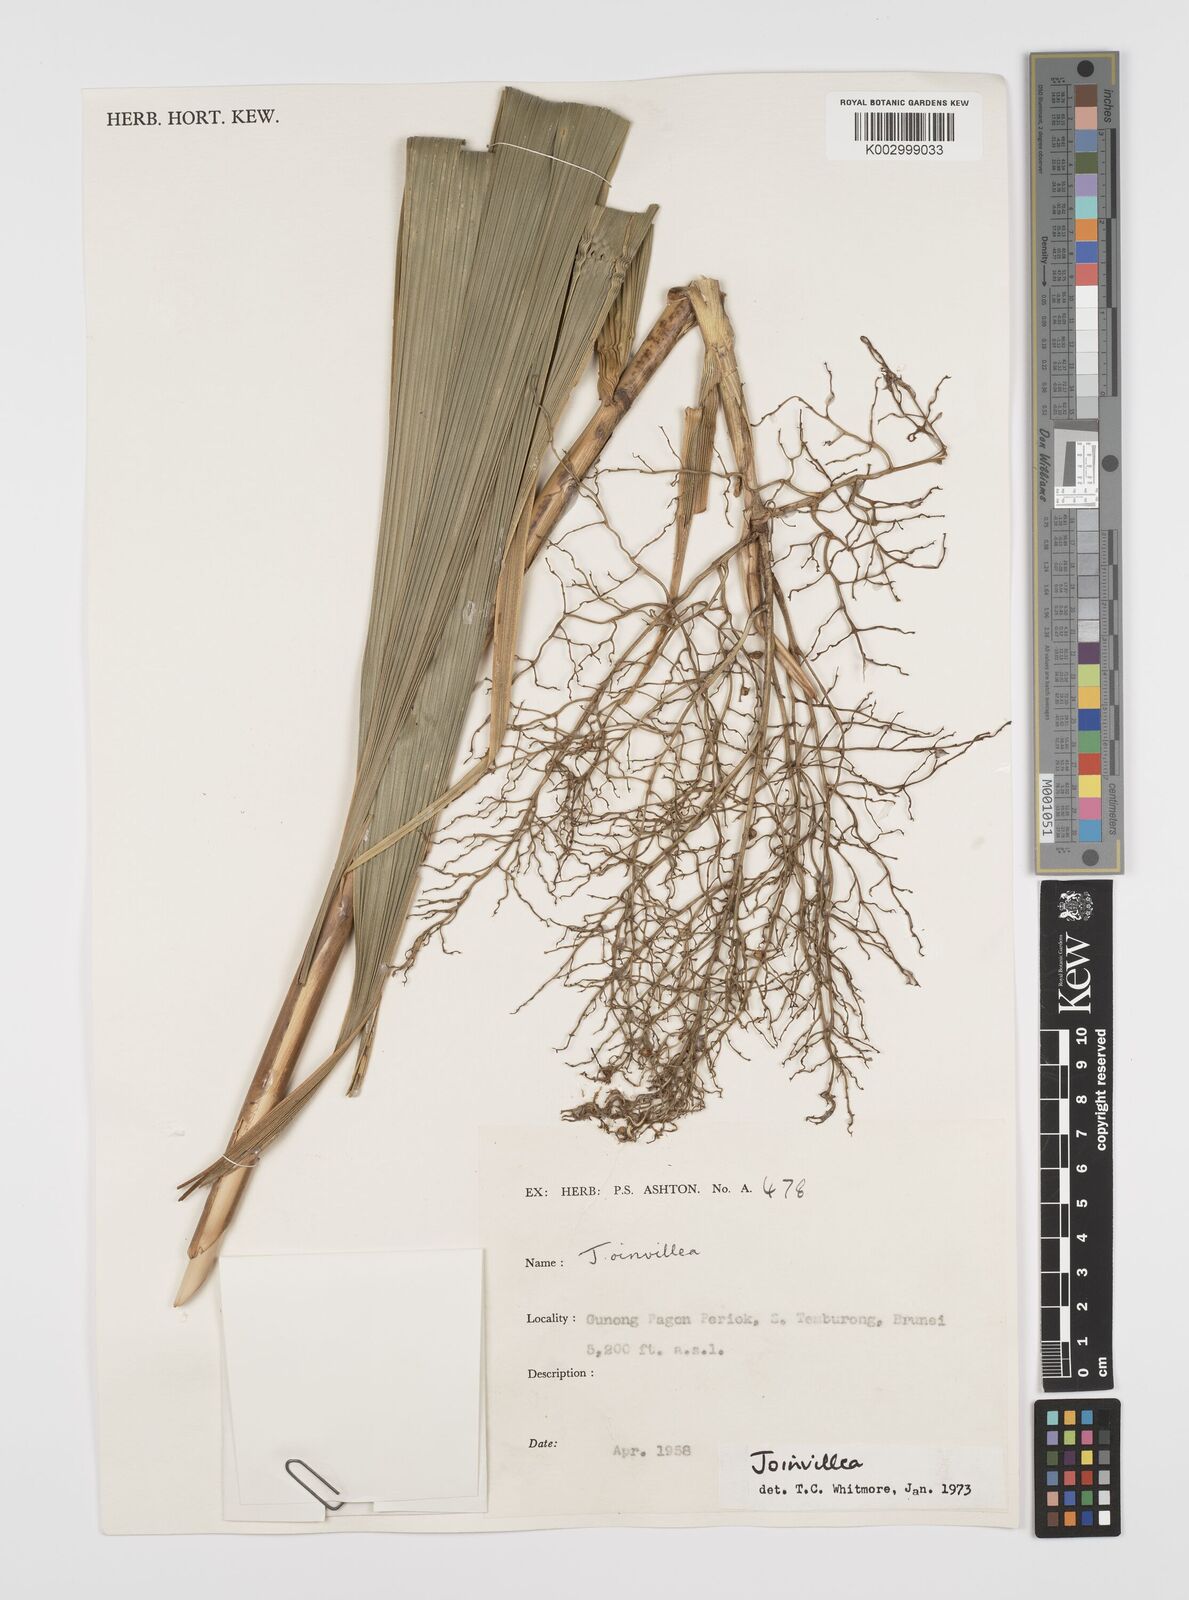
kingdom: Plantae
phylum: Tracheophyta
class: Liliopsida
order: Poales
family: Joinvilleaceae
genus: Joinvillea
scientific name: Joinvillea borneensis
